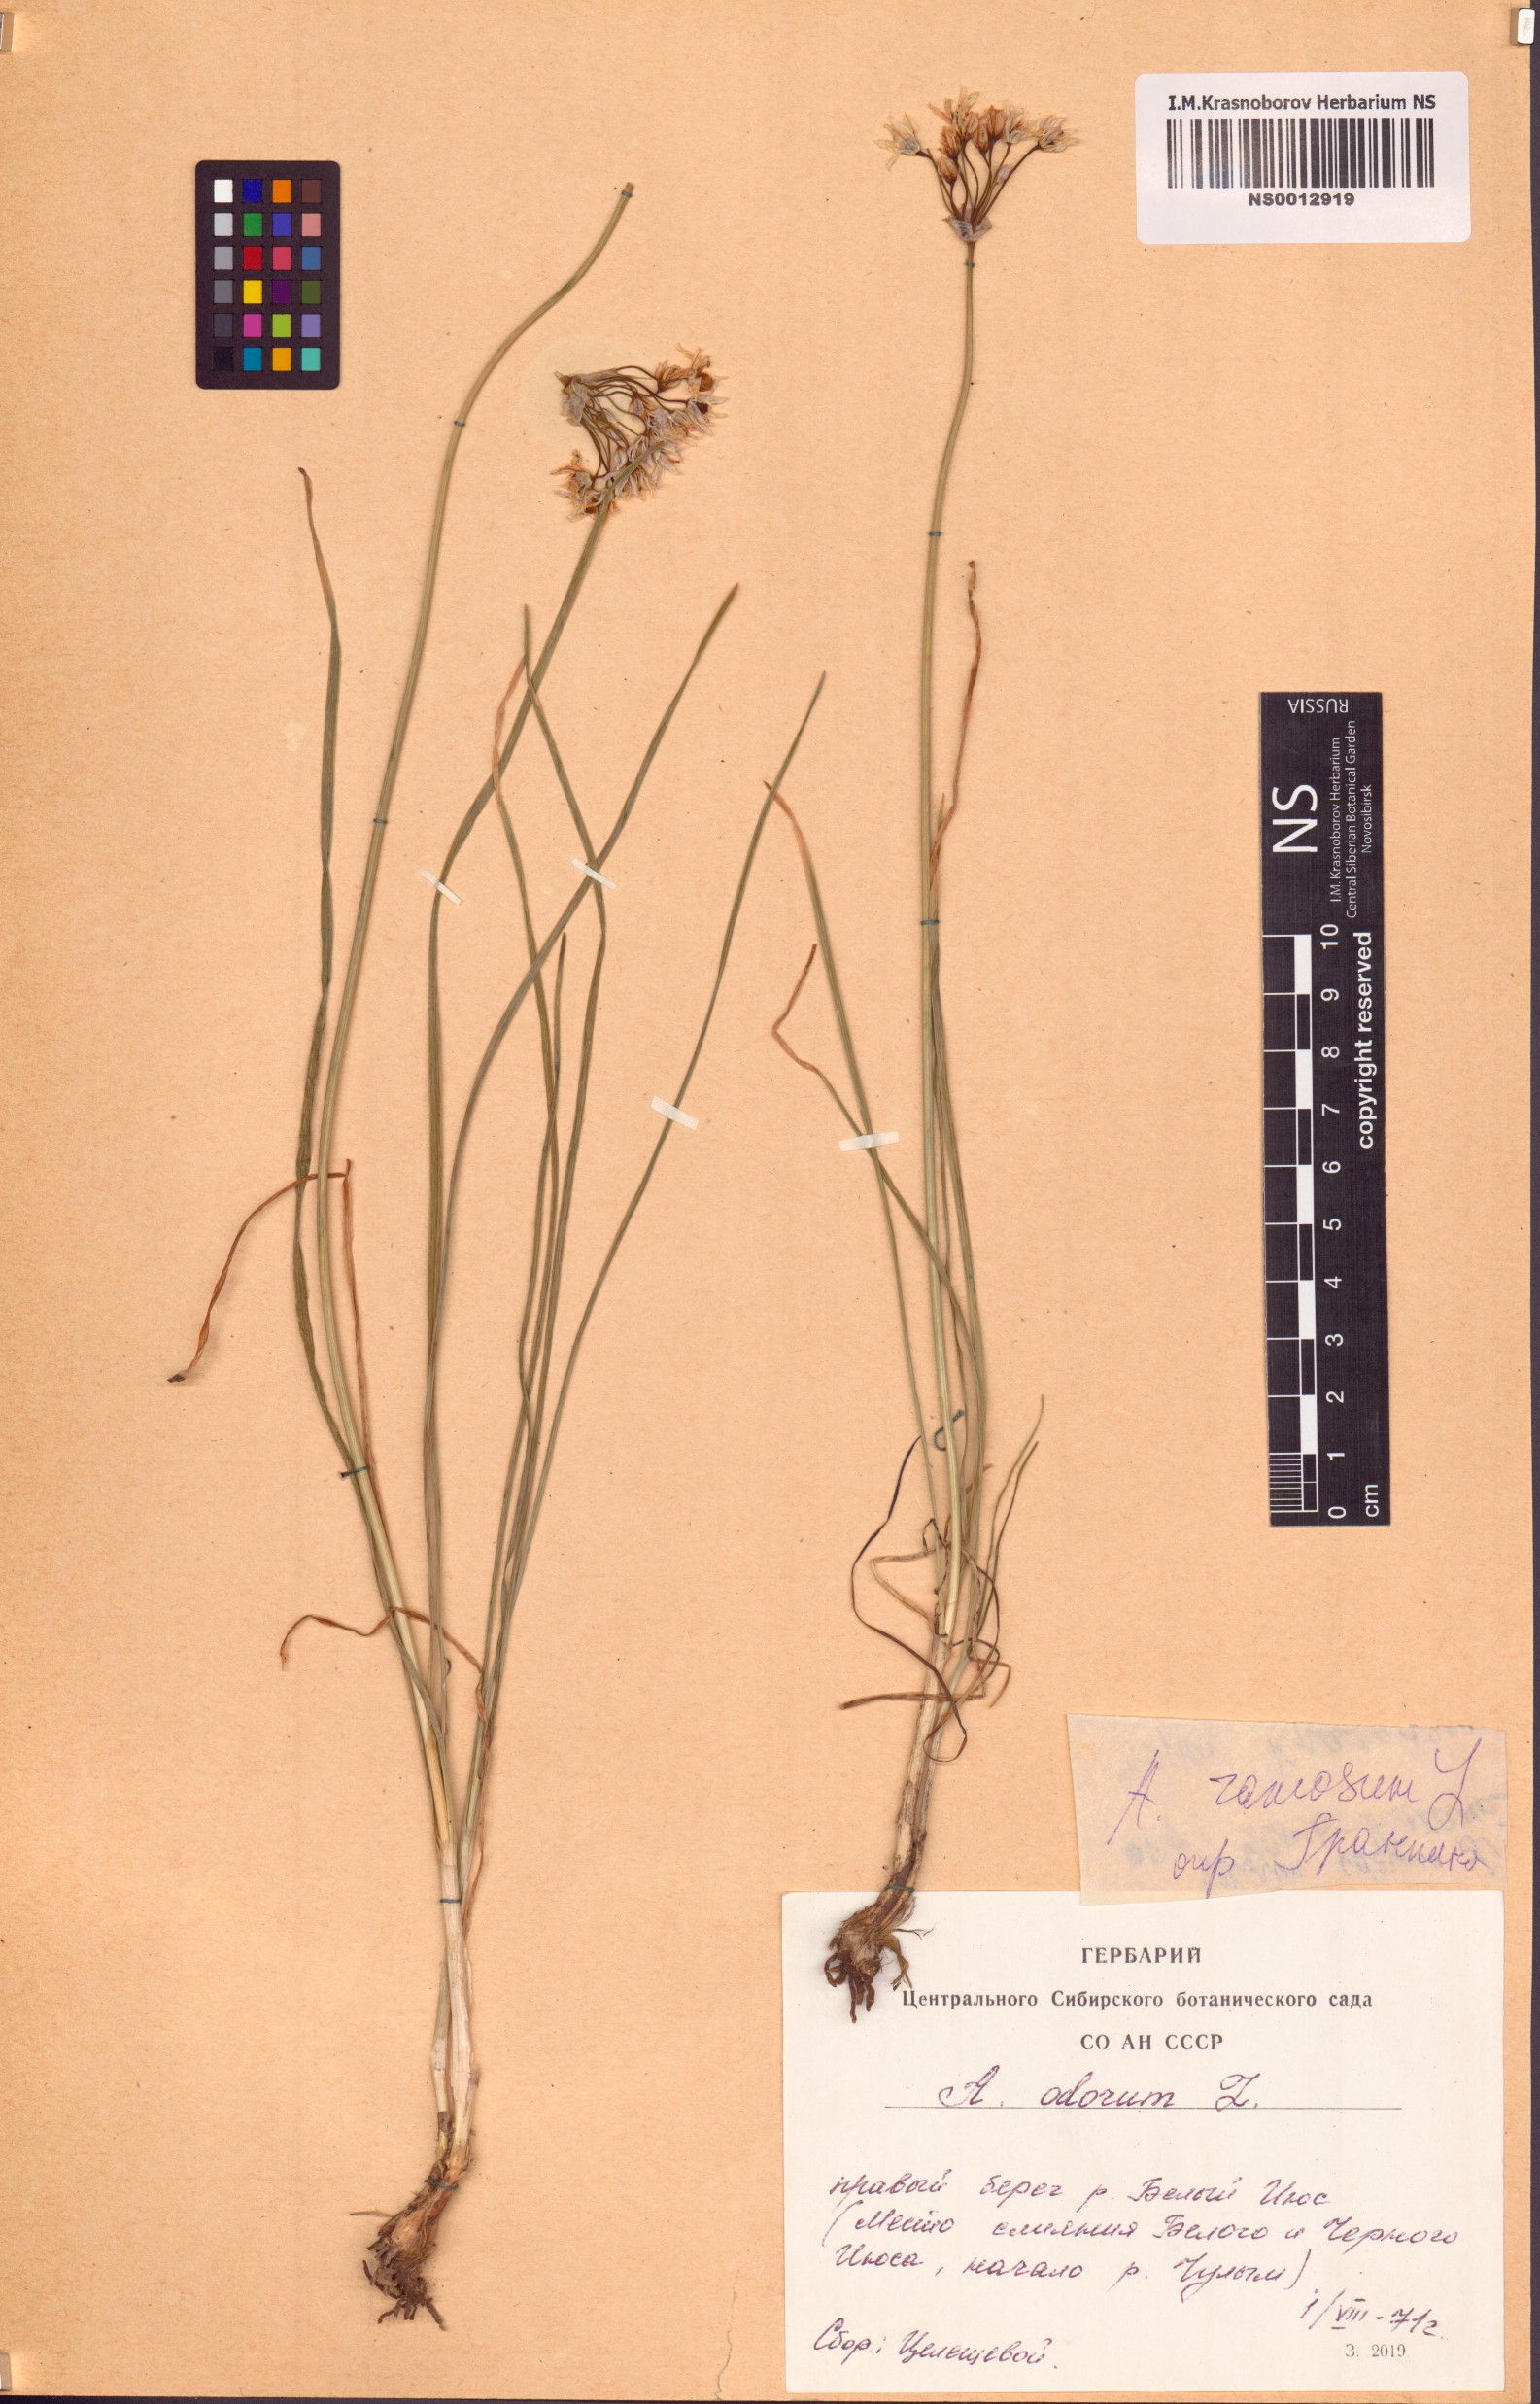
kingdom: Plantae
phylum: Tracheophyta
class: Liliopsida
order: Asparagales
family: Amaryllidaceae
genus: Allium
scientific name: Allium ramosum
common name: Fragrant garlic
